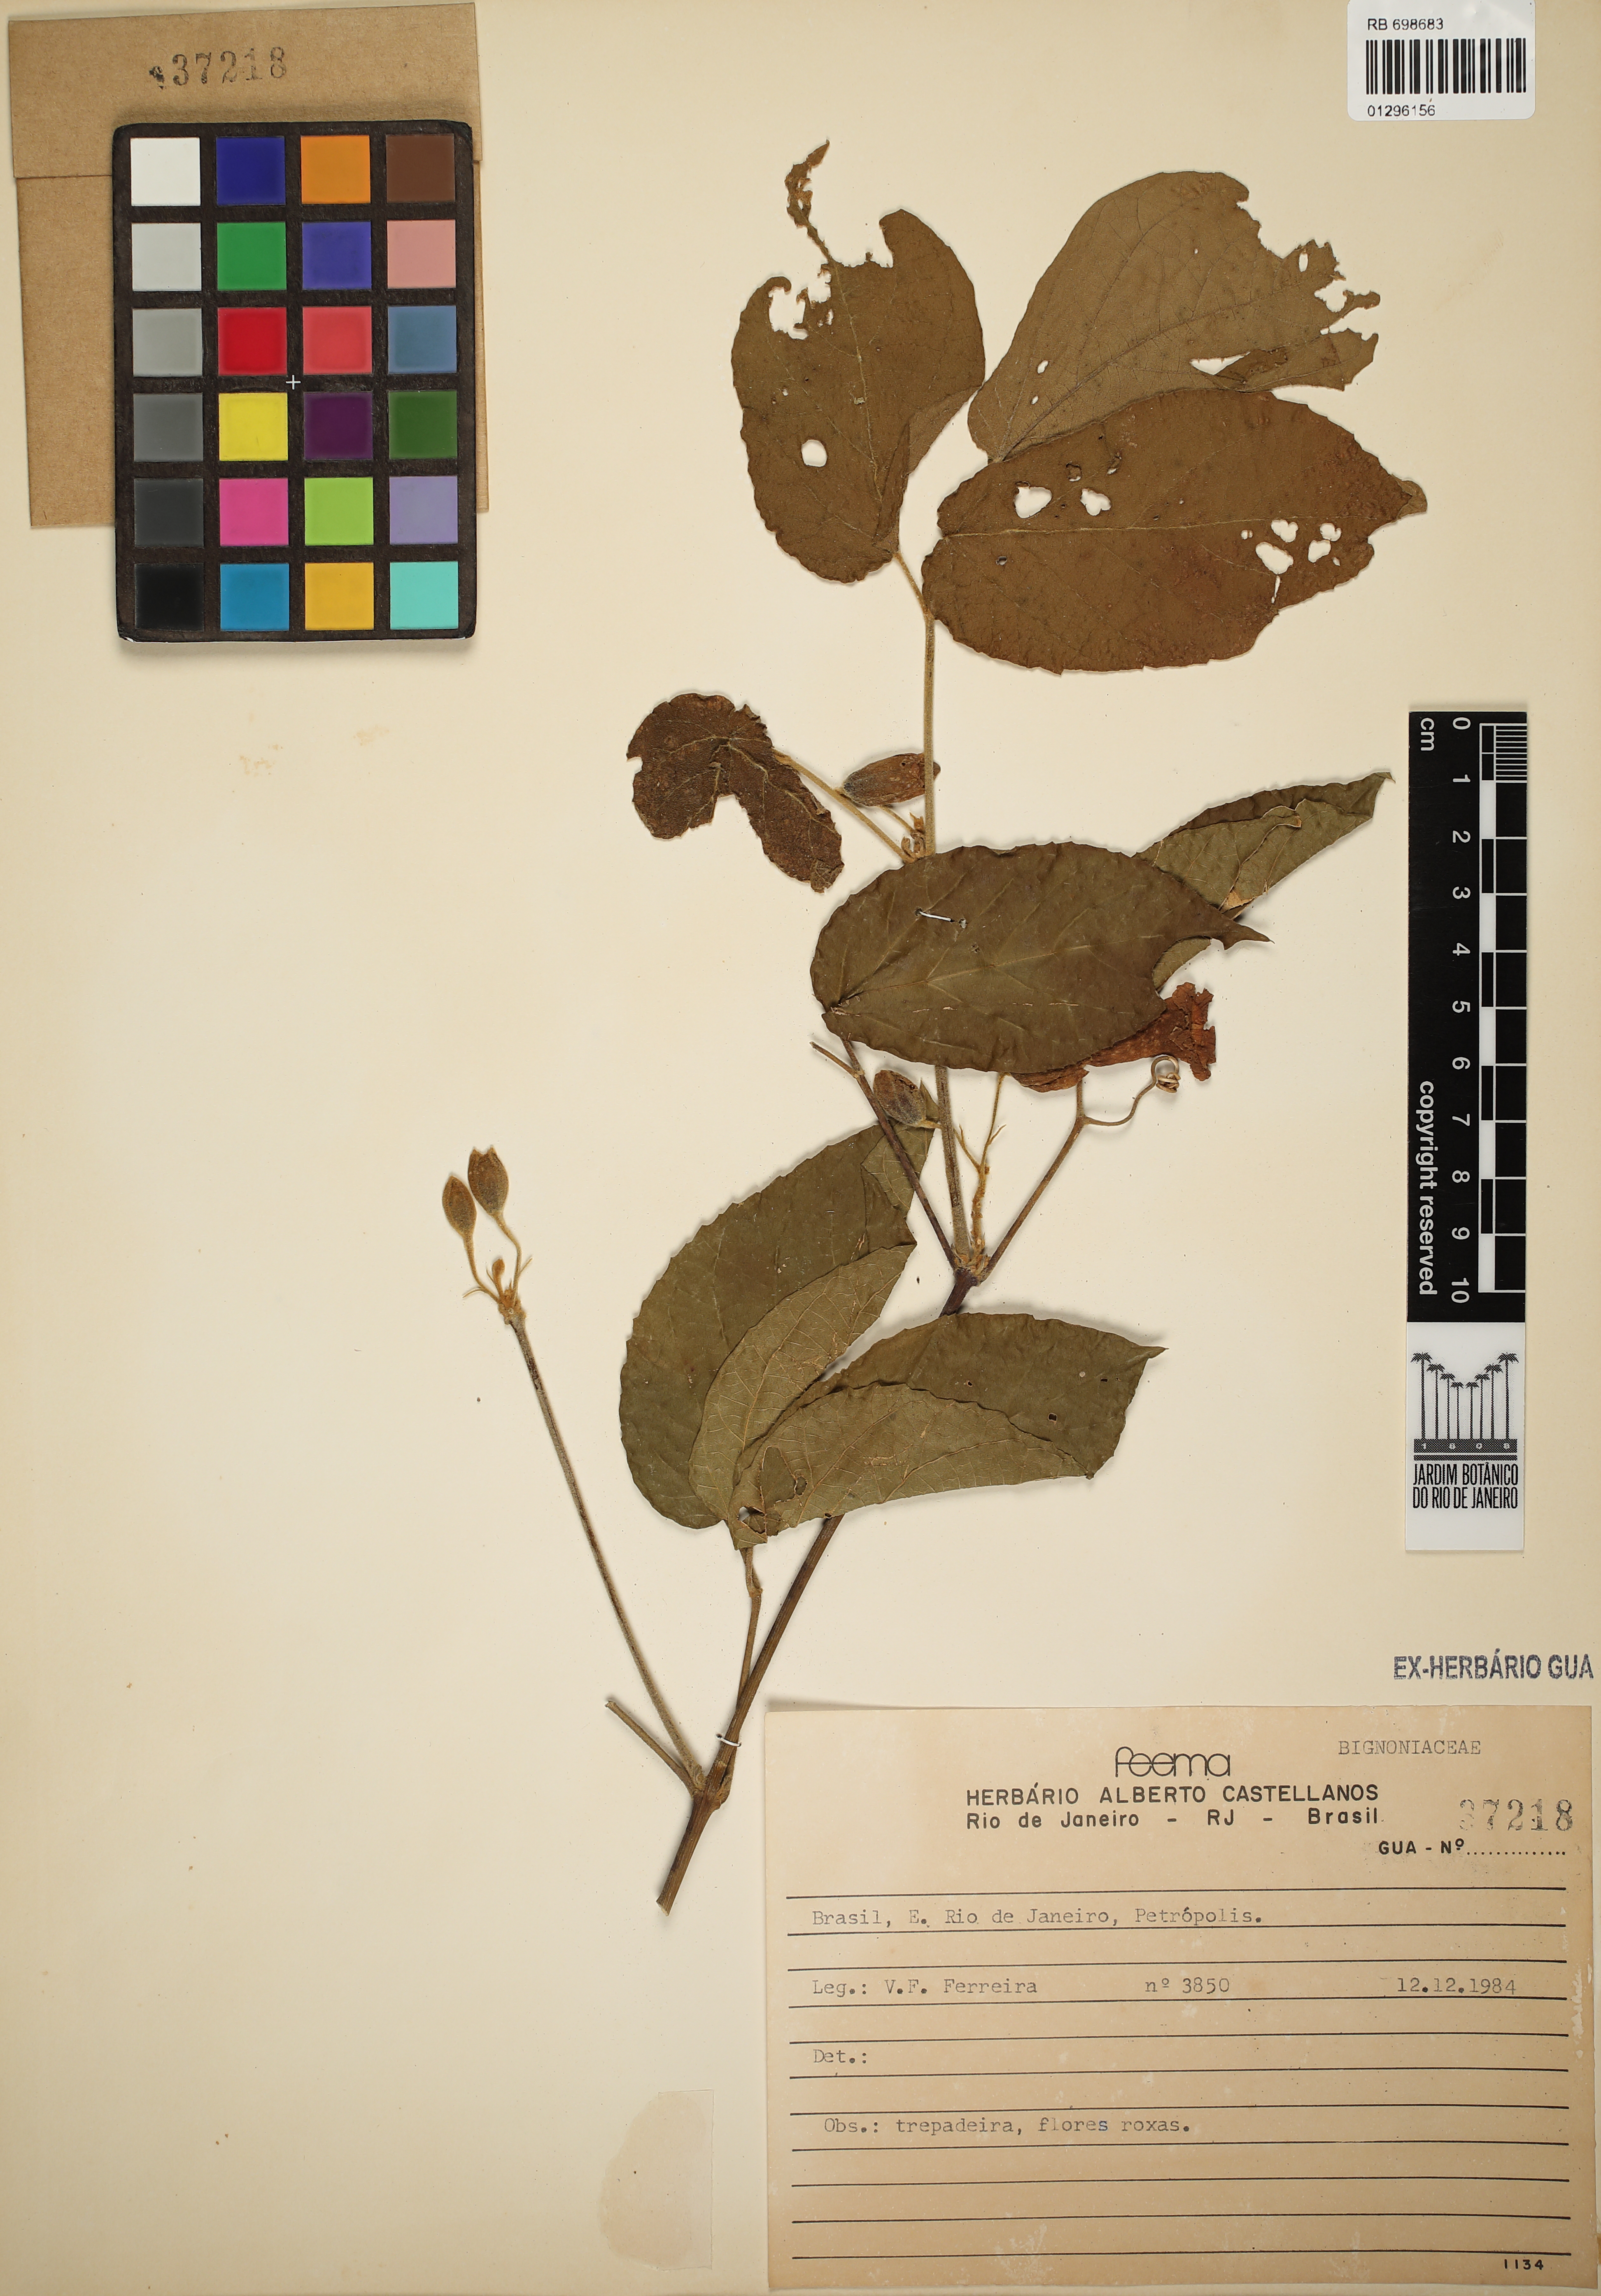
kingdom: Plantae
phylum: Tracheophyta
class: Magnoliopsida
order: Lamiales
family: Bignoniaceae
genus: Stizophyllum
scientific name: Stizophyllum perforatum
